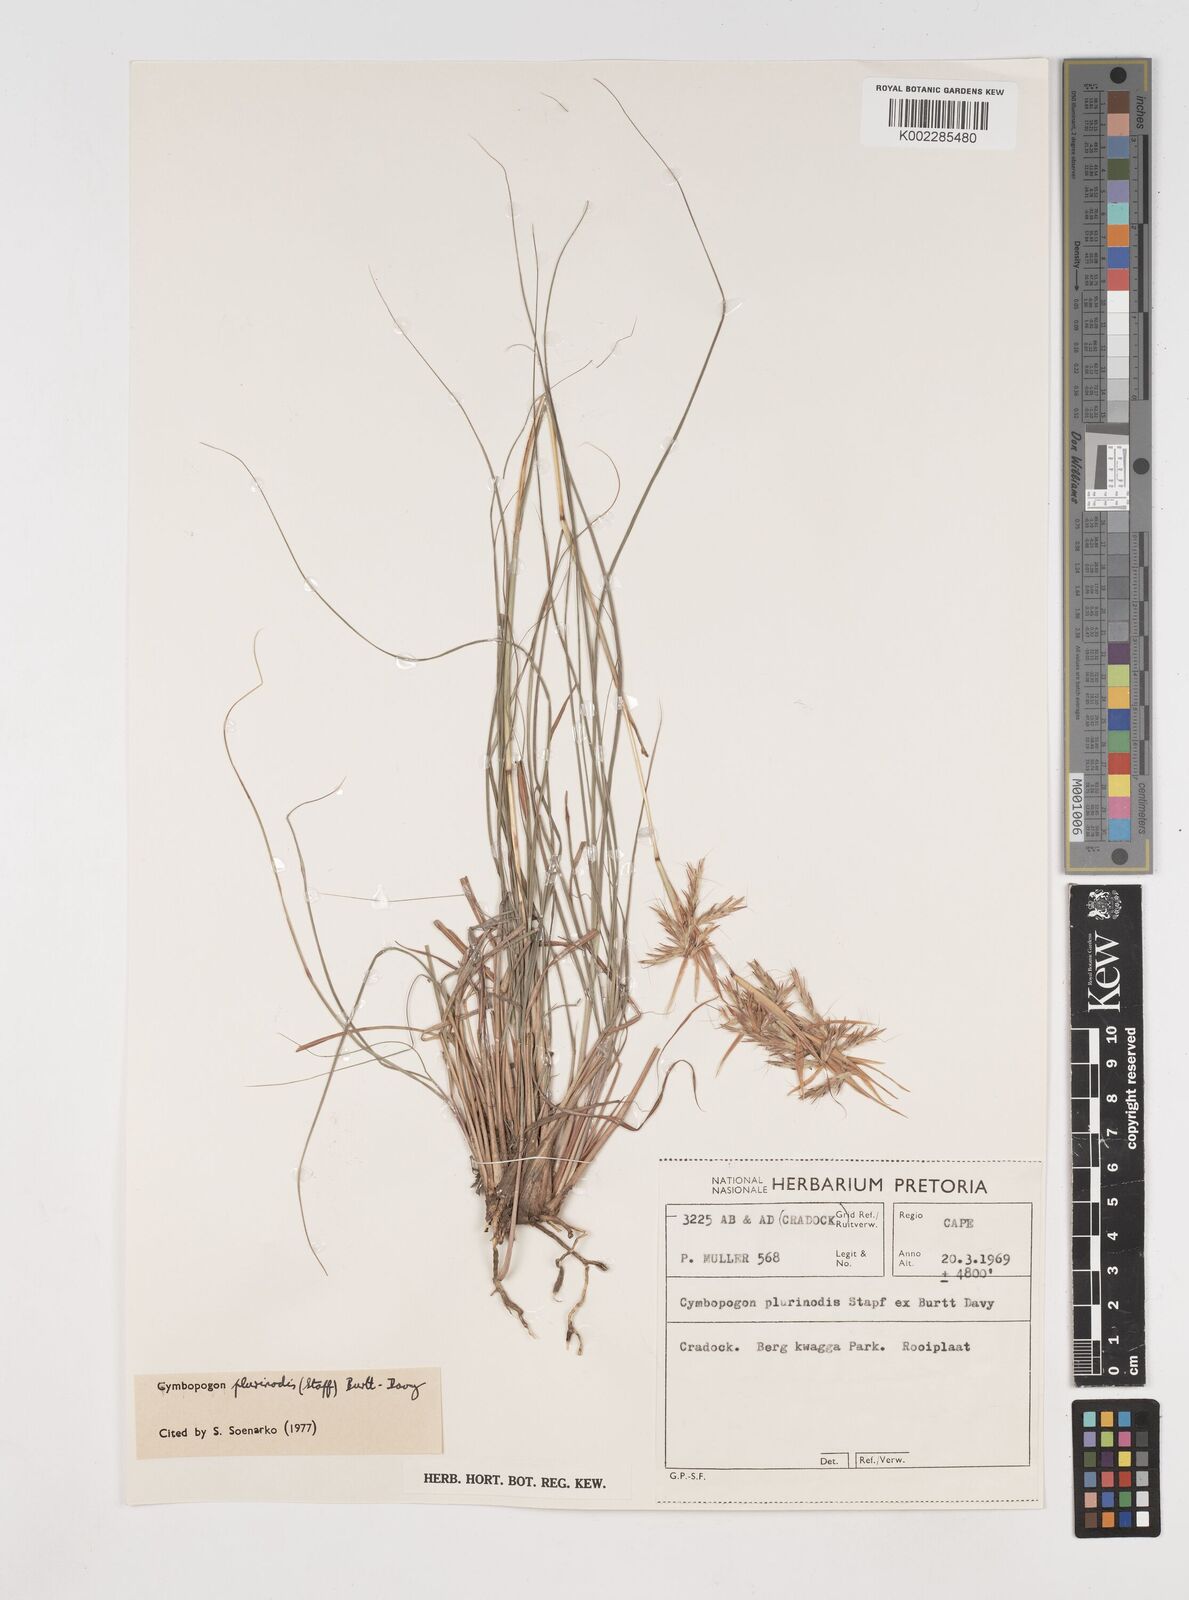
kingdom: Plantae
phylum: Tracheophyta
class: Liliopsida
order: Poales
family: Poaceae
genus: Cymbopogon
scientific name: Cymbopogon pospischilii
